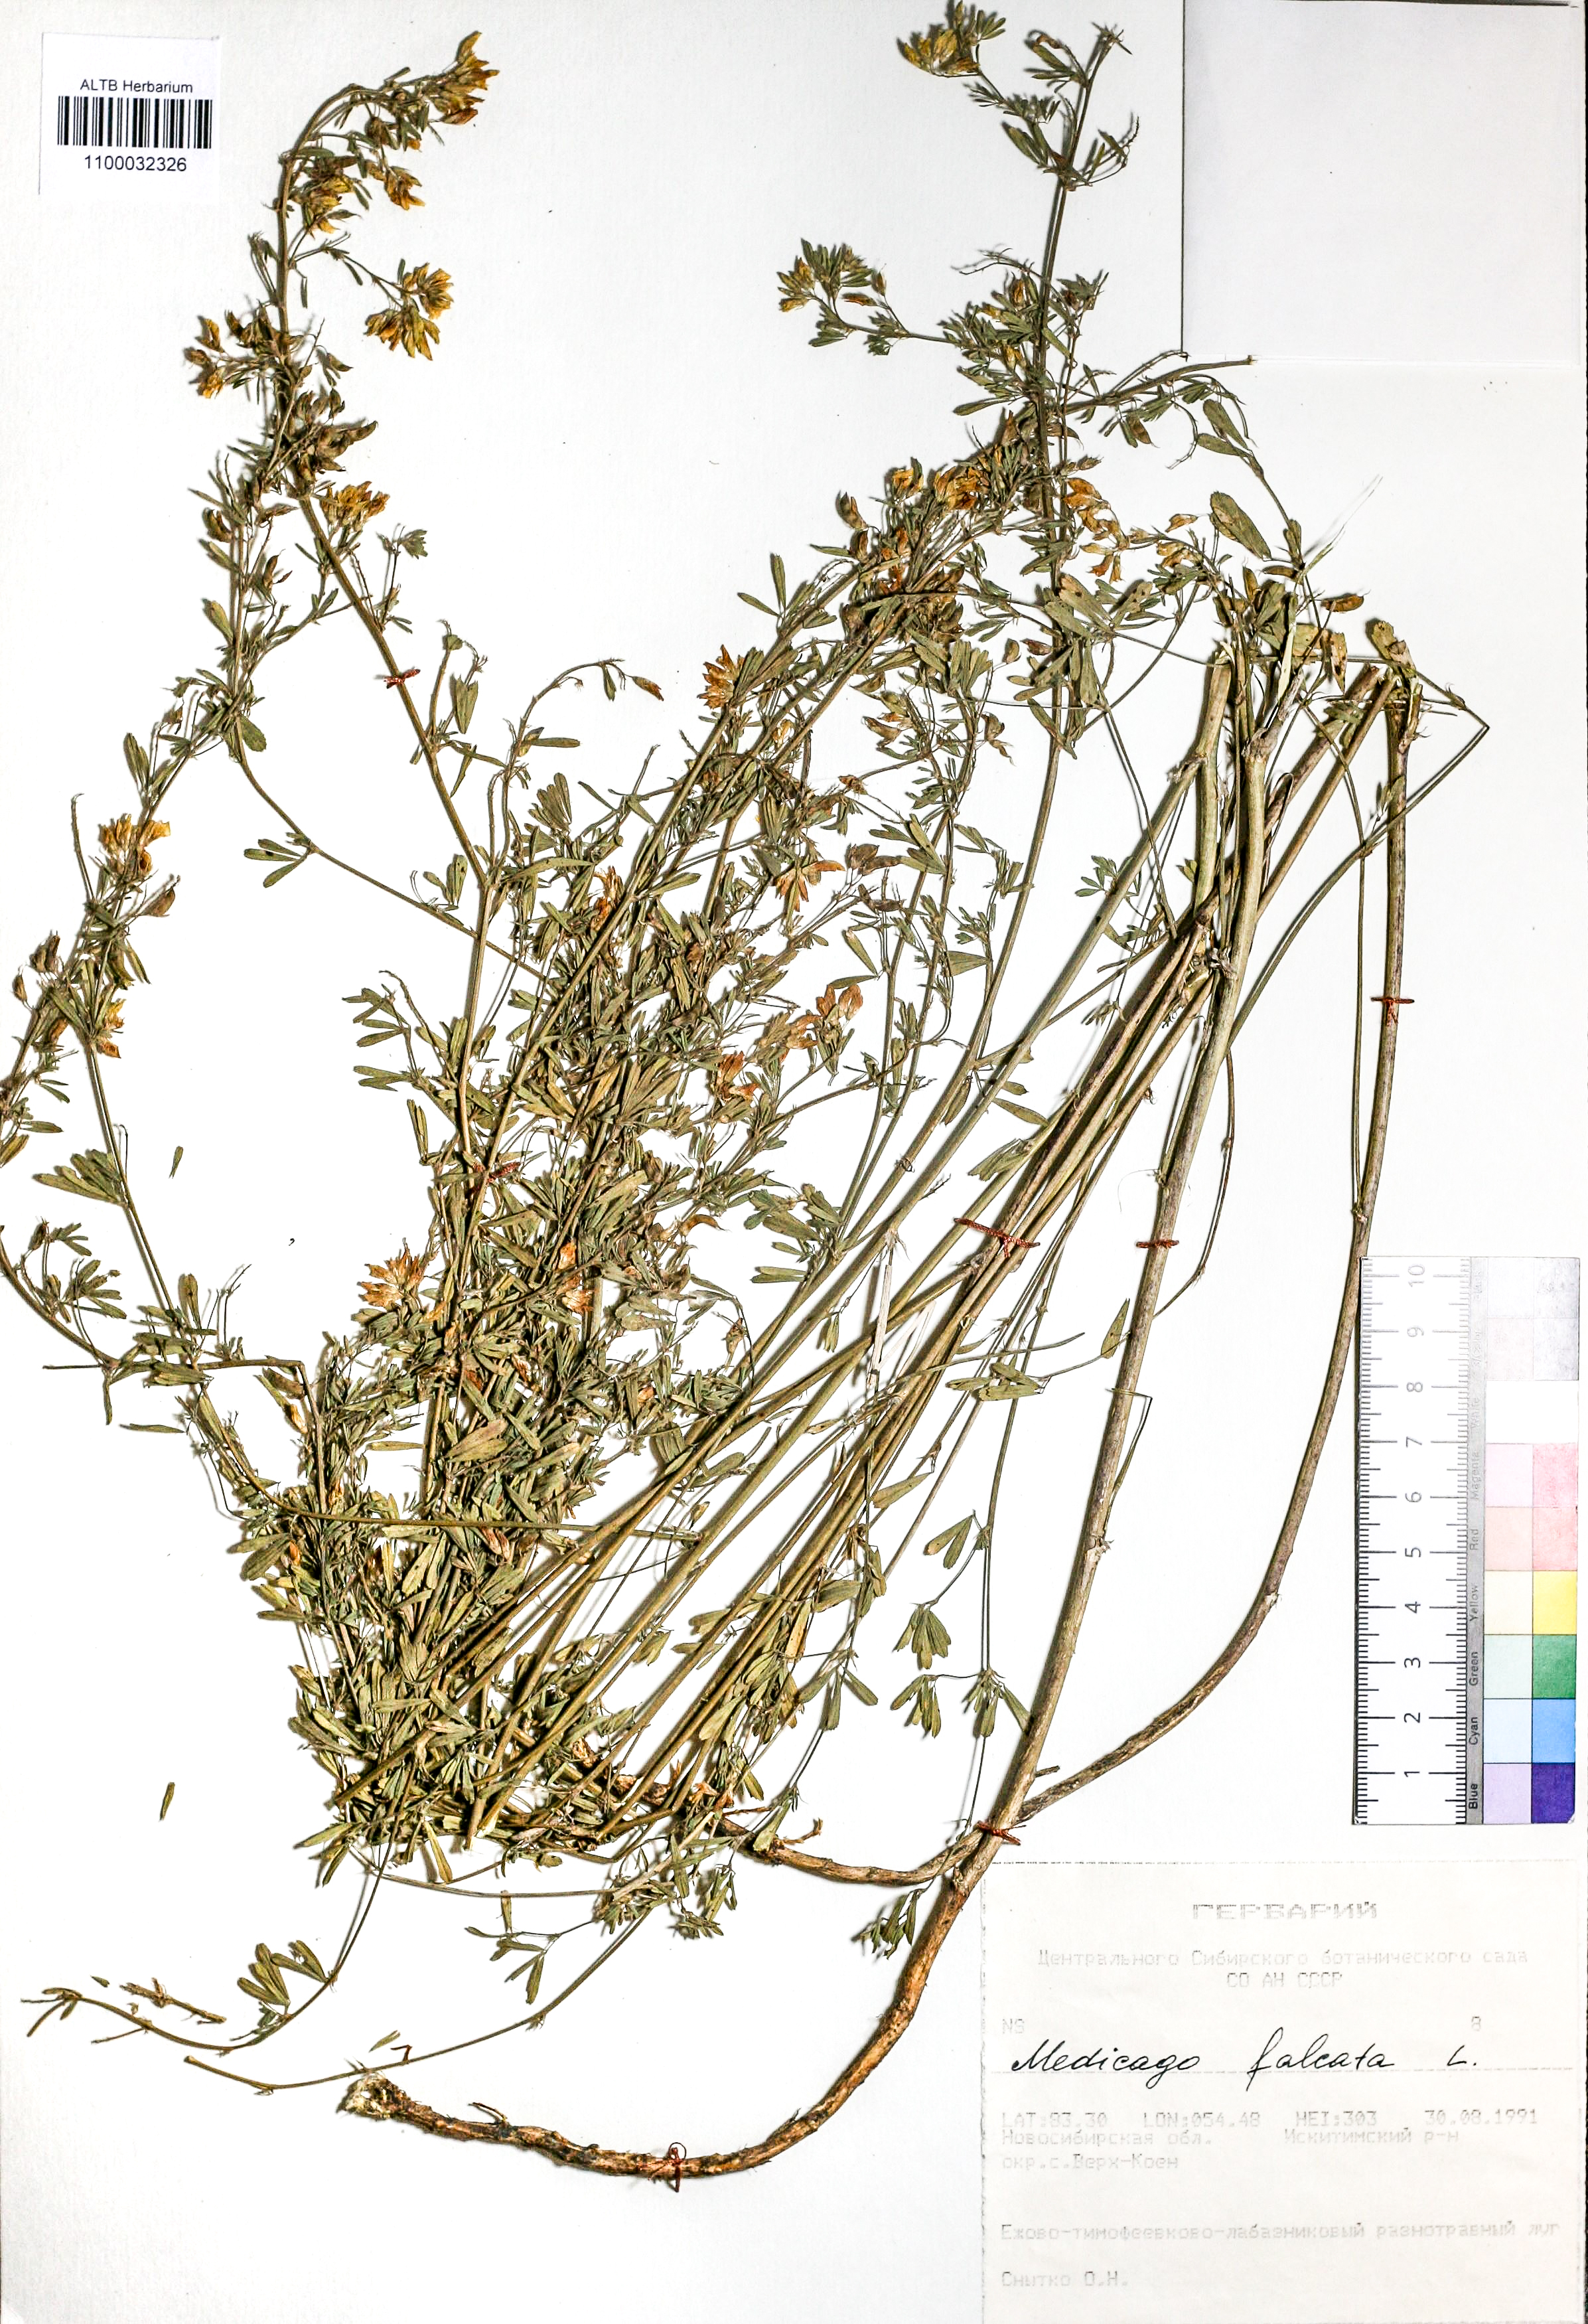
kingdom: Plantae
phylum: Tracheophyta
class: Magnoliopsida
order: Fabales
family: Fabaceae
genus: Medicago
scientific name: Medicago falcata
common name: Sickle medick
